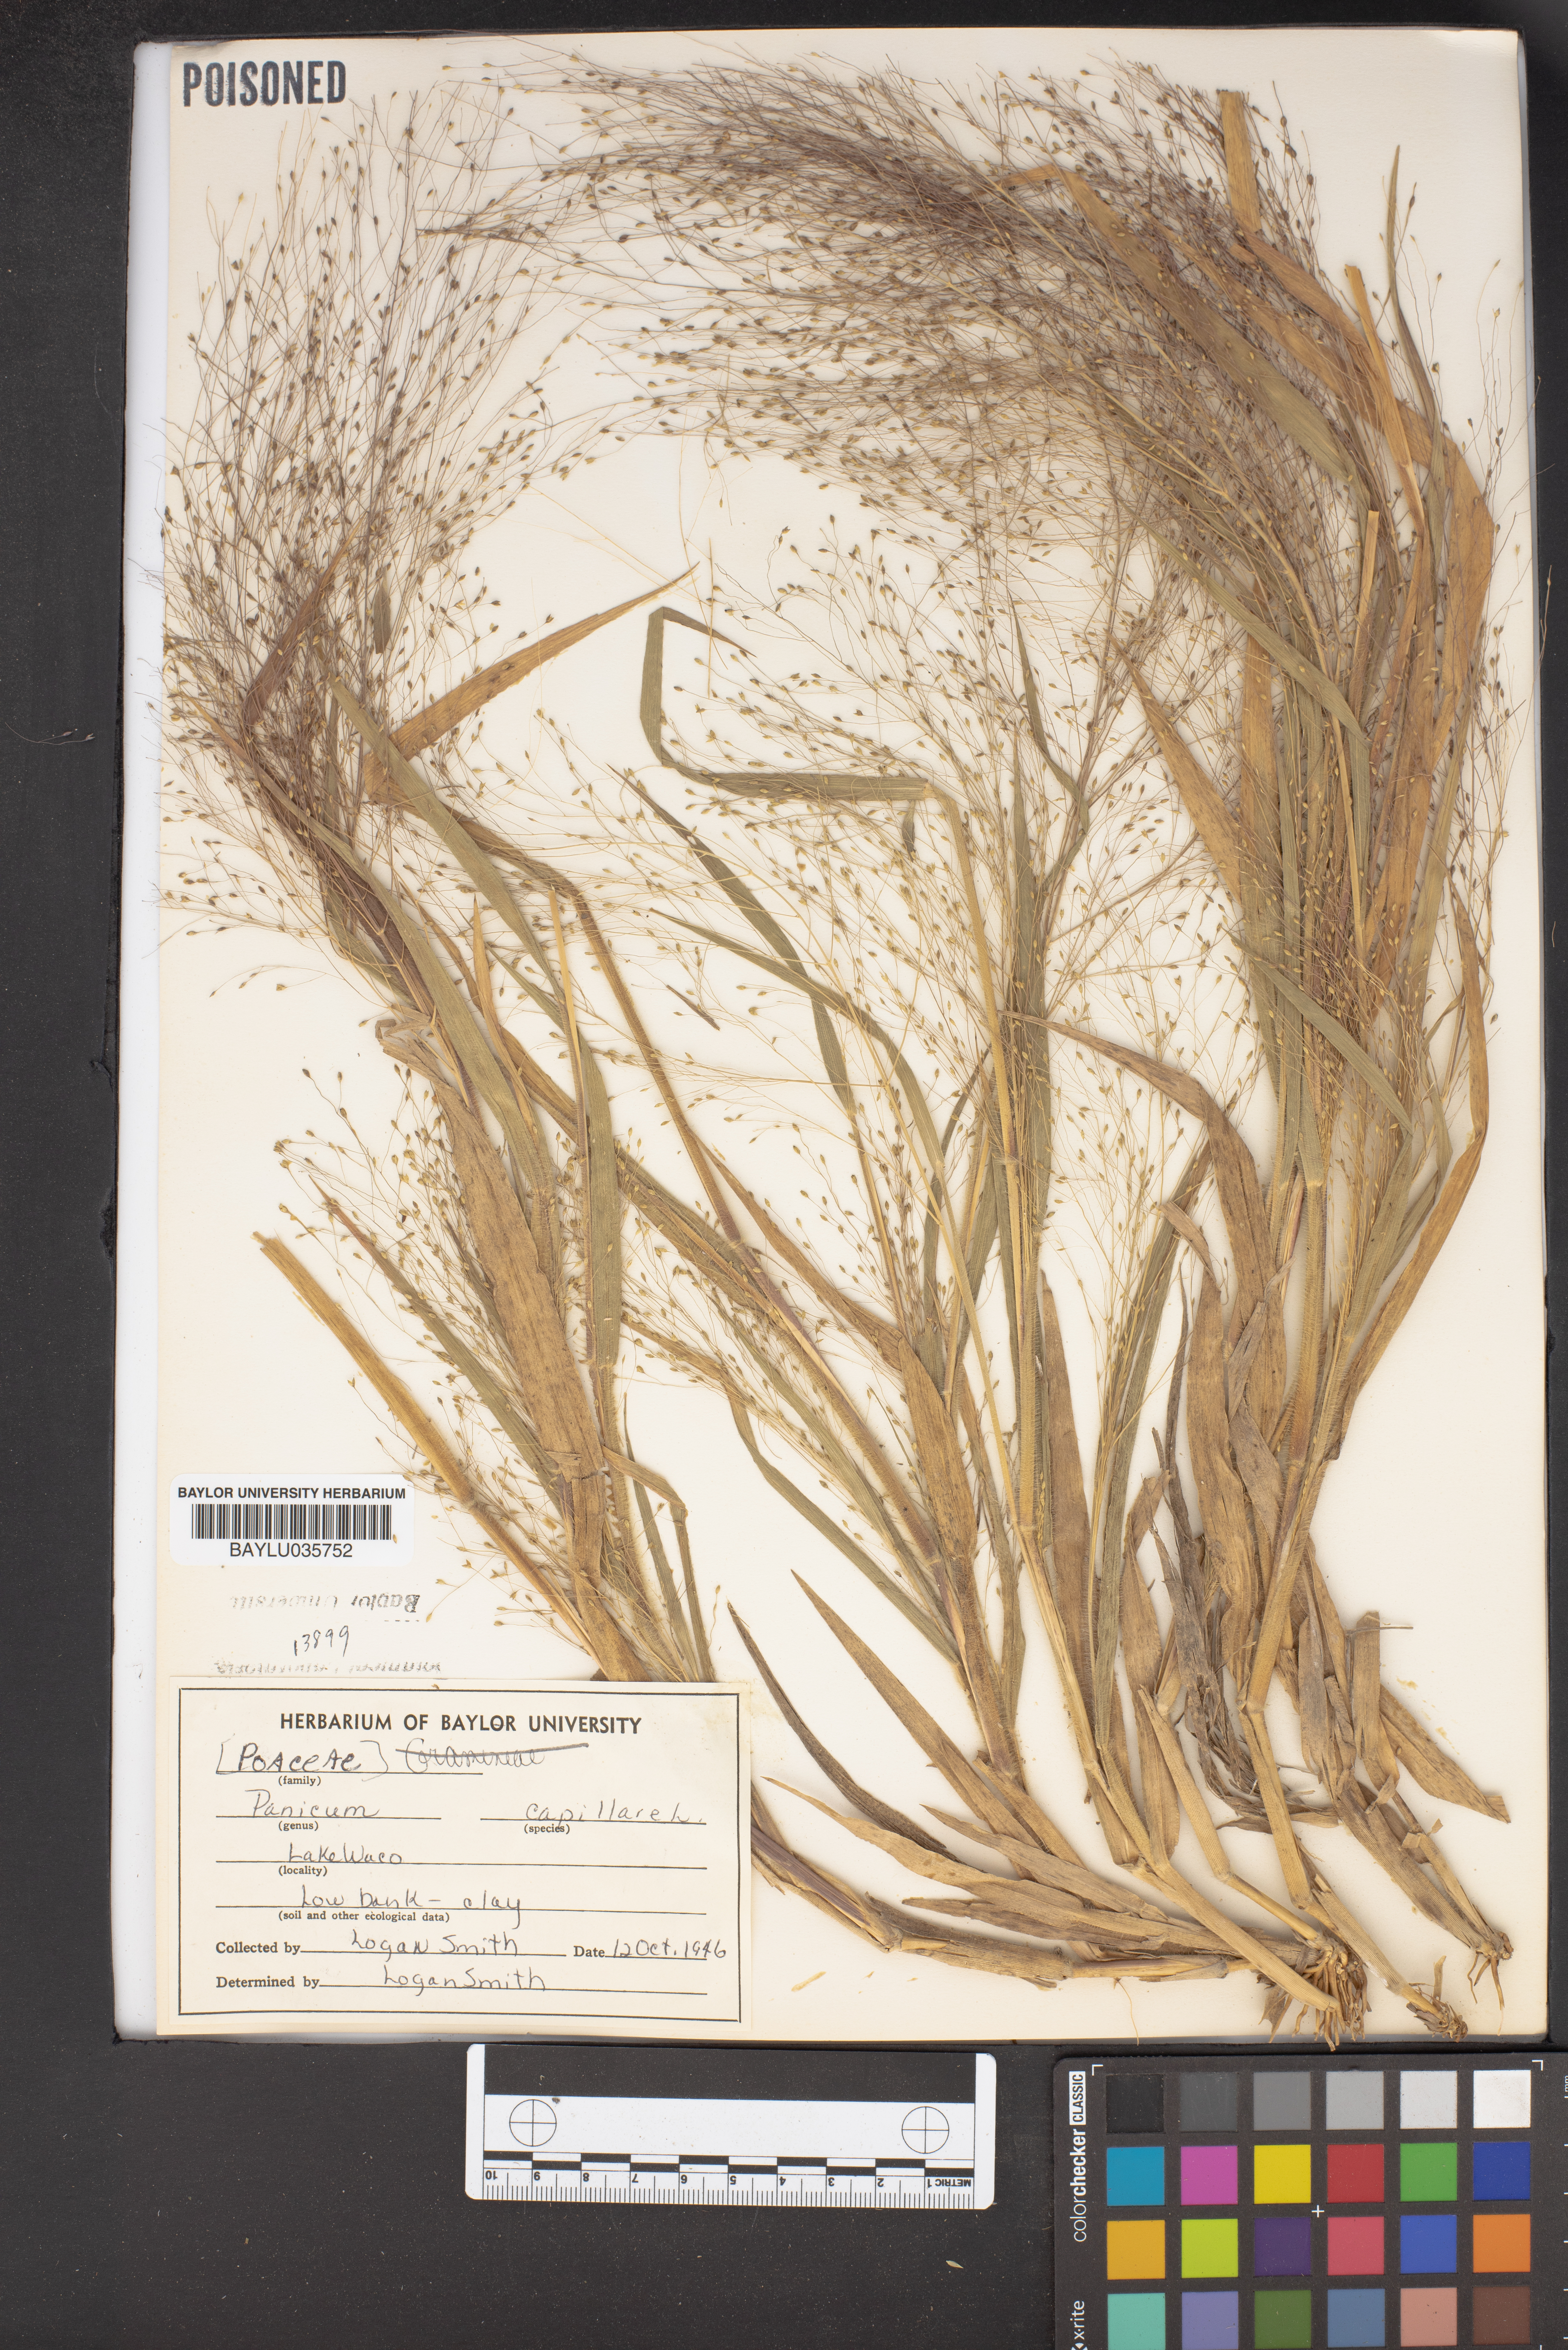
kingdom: Plantae
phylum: Tracheophyta
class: Liliopsida
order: Poales
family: Poaceae
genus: Panicum
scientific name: Panicum capillare
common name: Witch-grass
